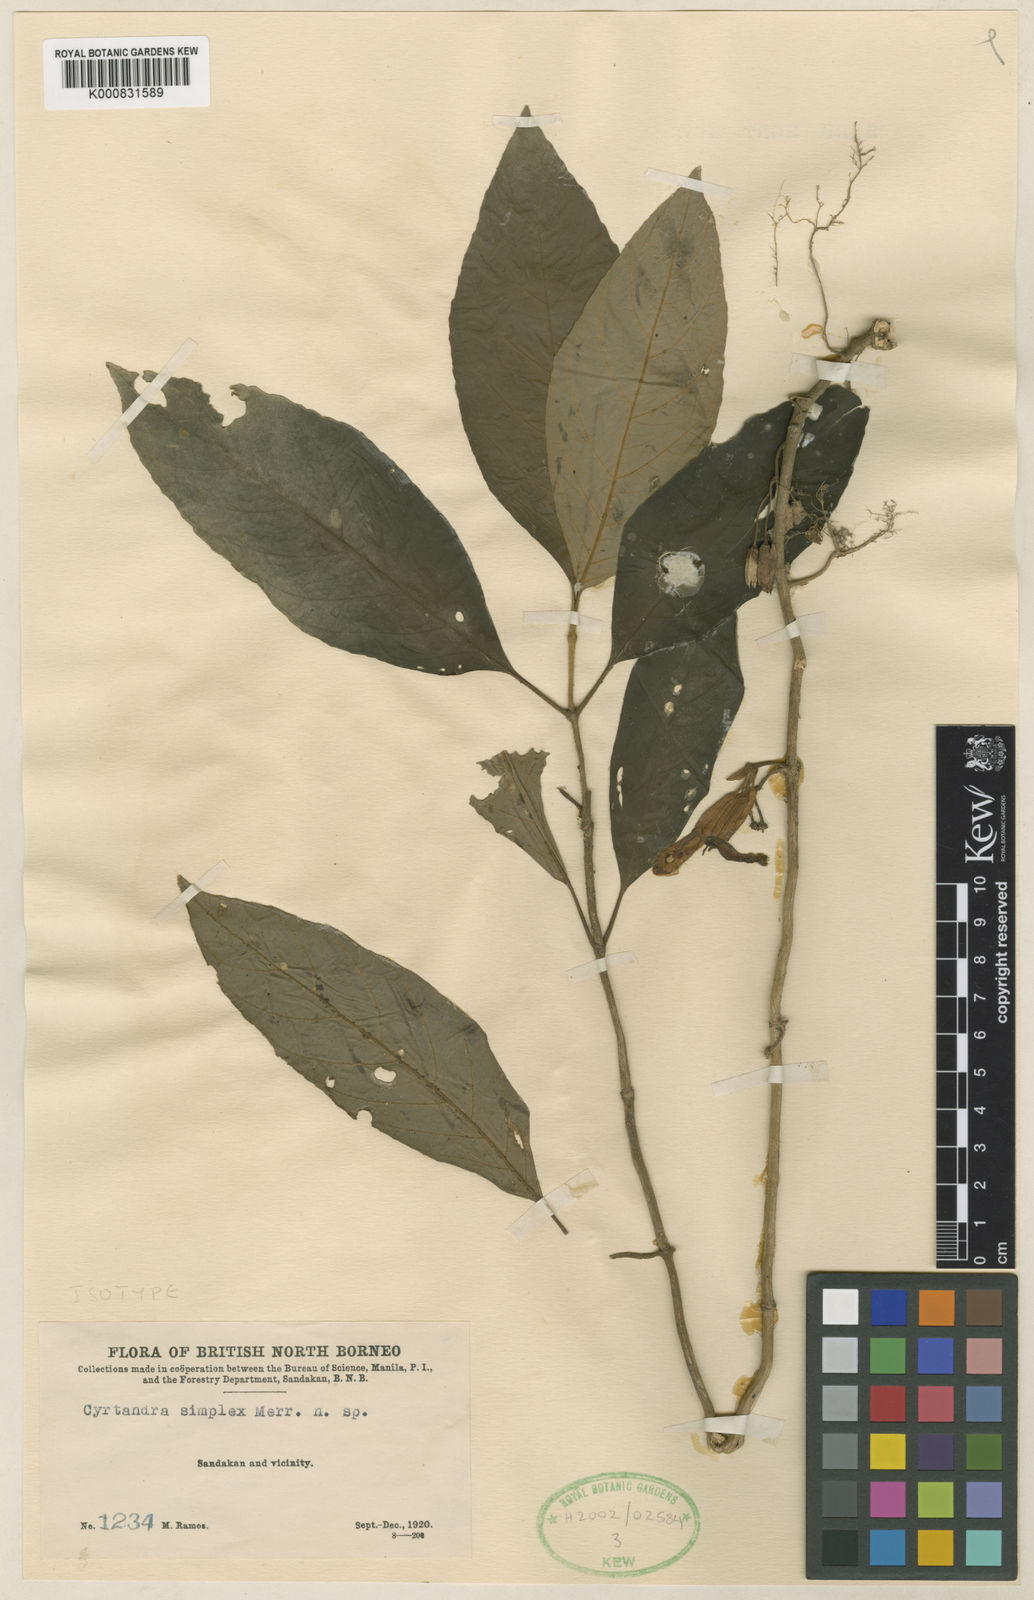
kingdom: Plantae
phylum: Tracheophyta
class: Magnoliopsida
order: Lamiales
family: Gesneriaceae
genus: Cyrtandra
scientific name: Cyrtandra simplex
